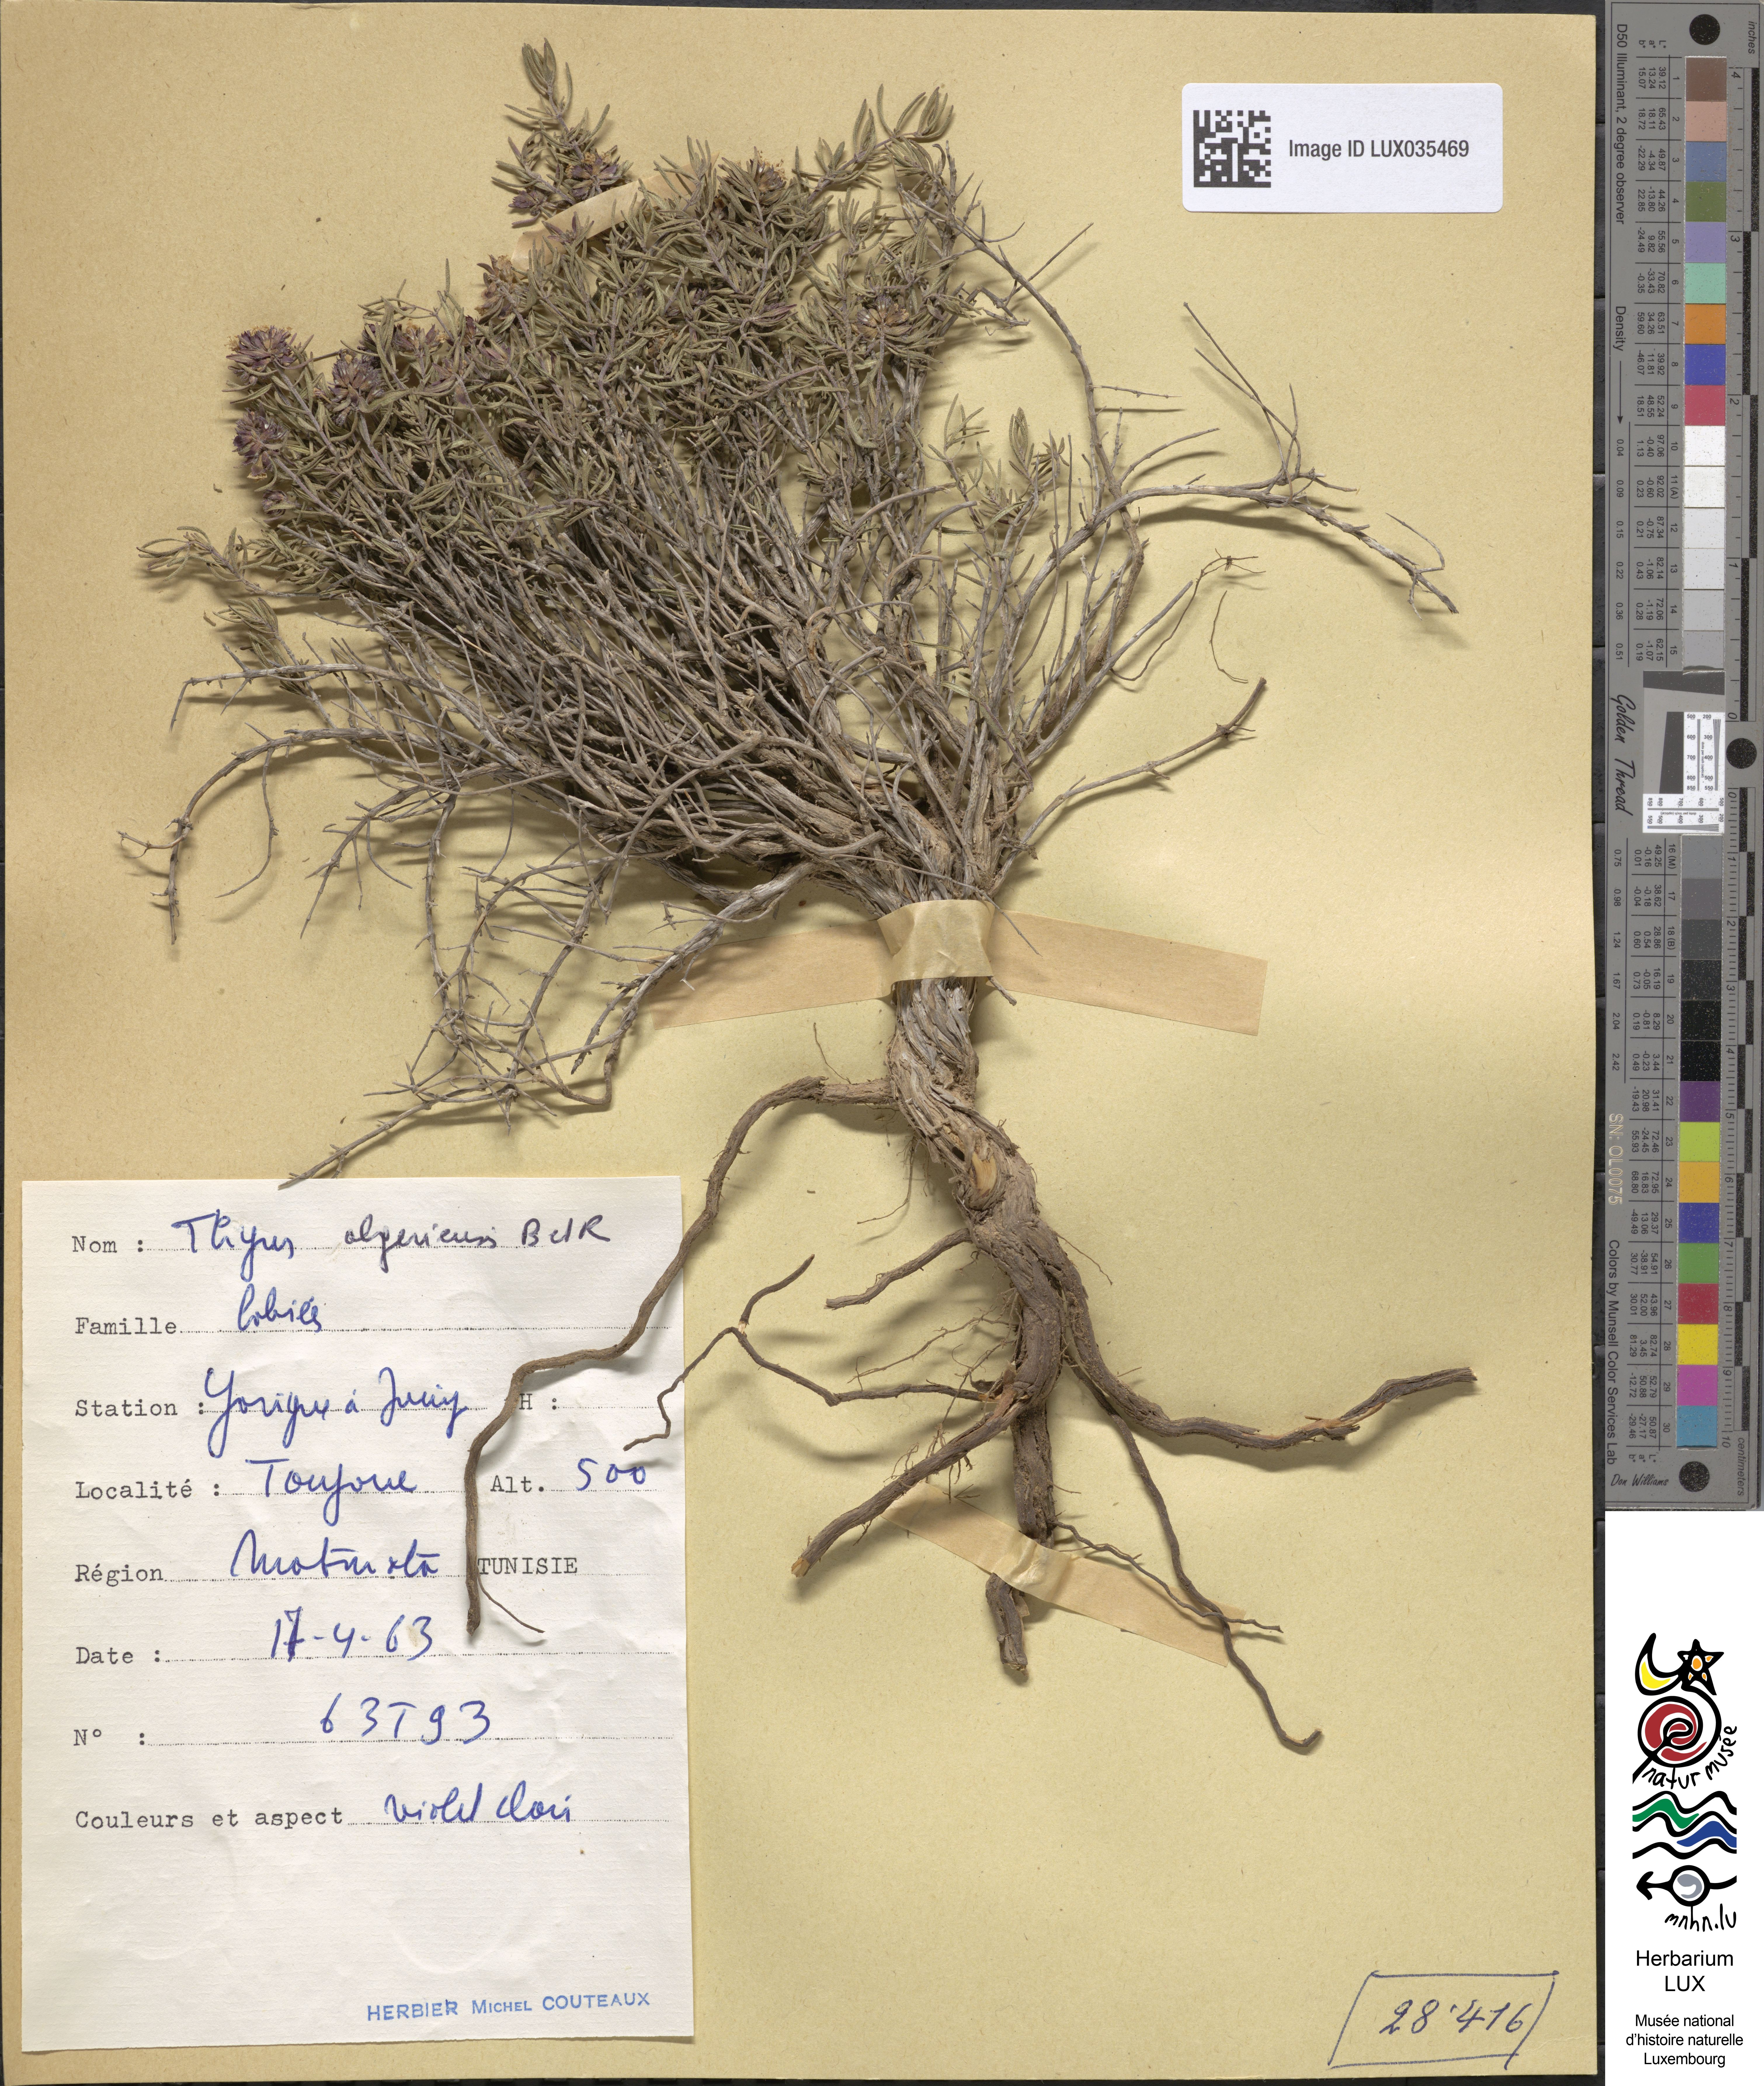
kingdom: Plantae
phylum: Tracheophyta
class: Magnoliopsida
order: Lamiales
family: Lamiaceae
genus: Thymus
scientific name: Thymus algeriensis
